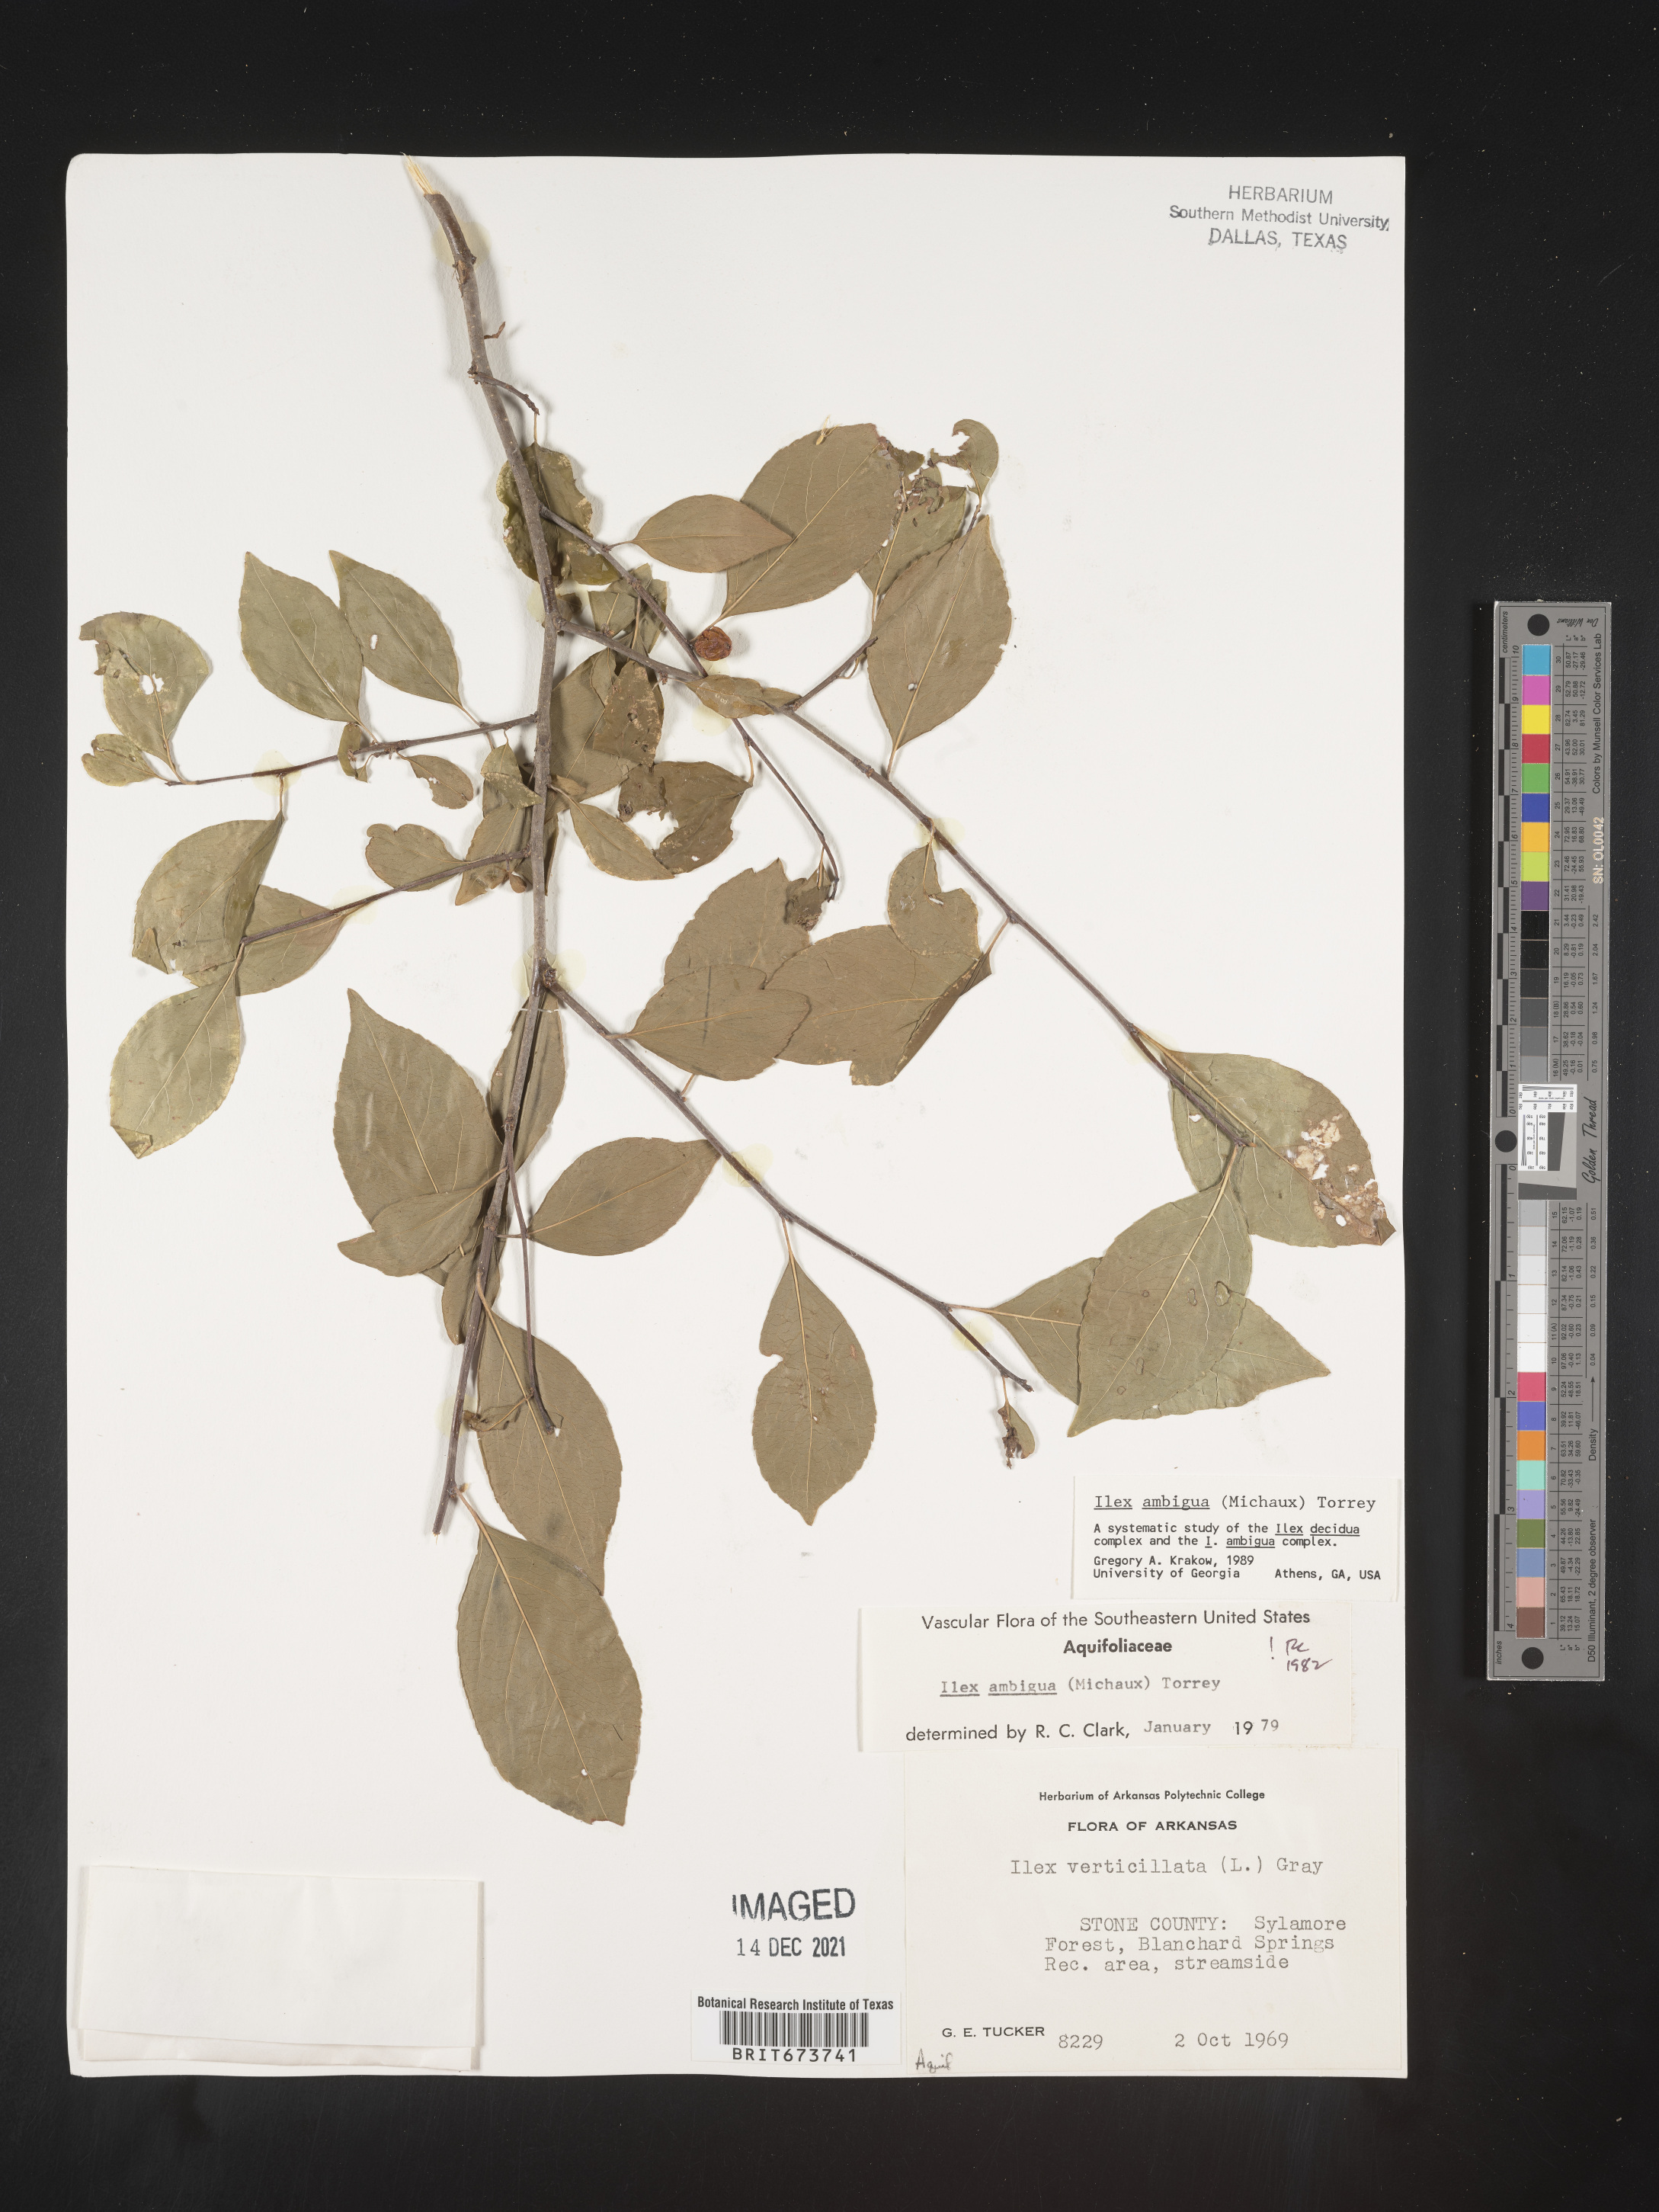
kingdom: Plantae
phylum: Tracheophyta
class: Magnoliopsida
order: Aquifoliales
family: Aquifoliaceae
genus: Ilex
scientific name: Ilex ambigua
